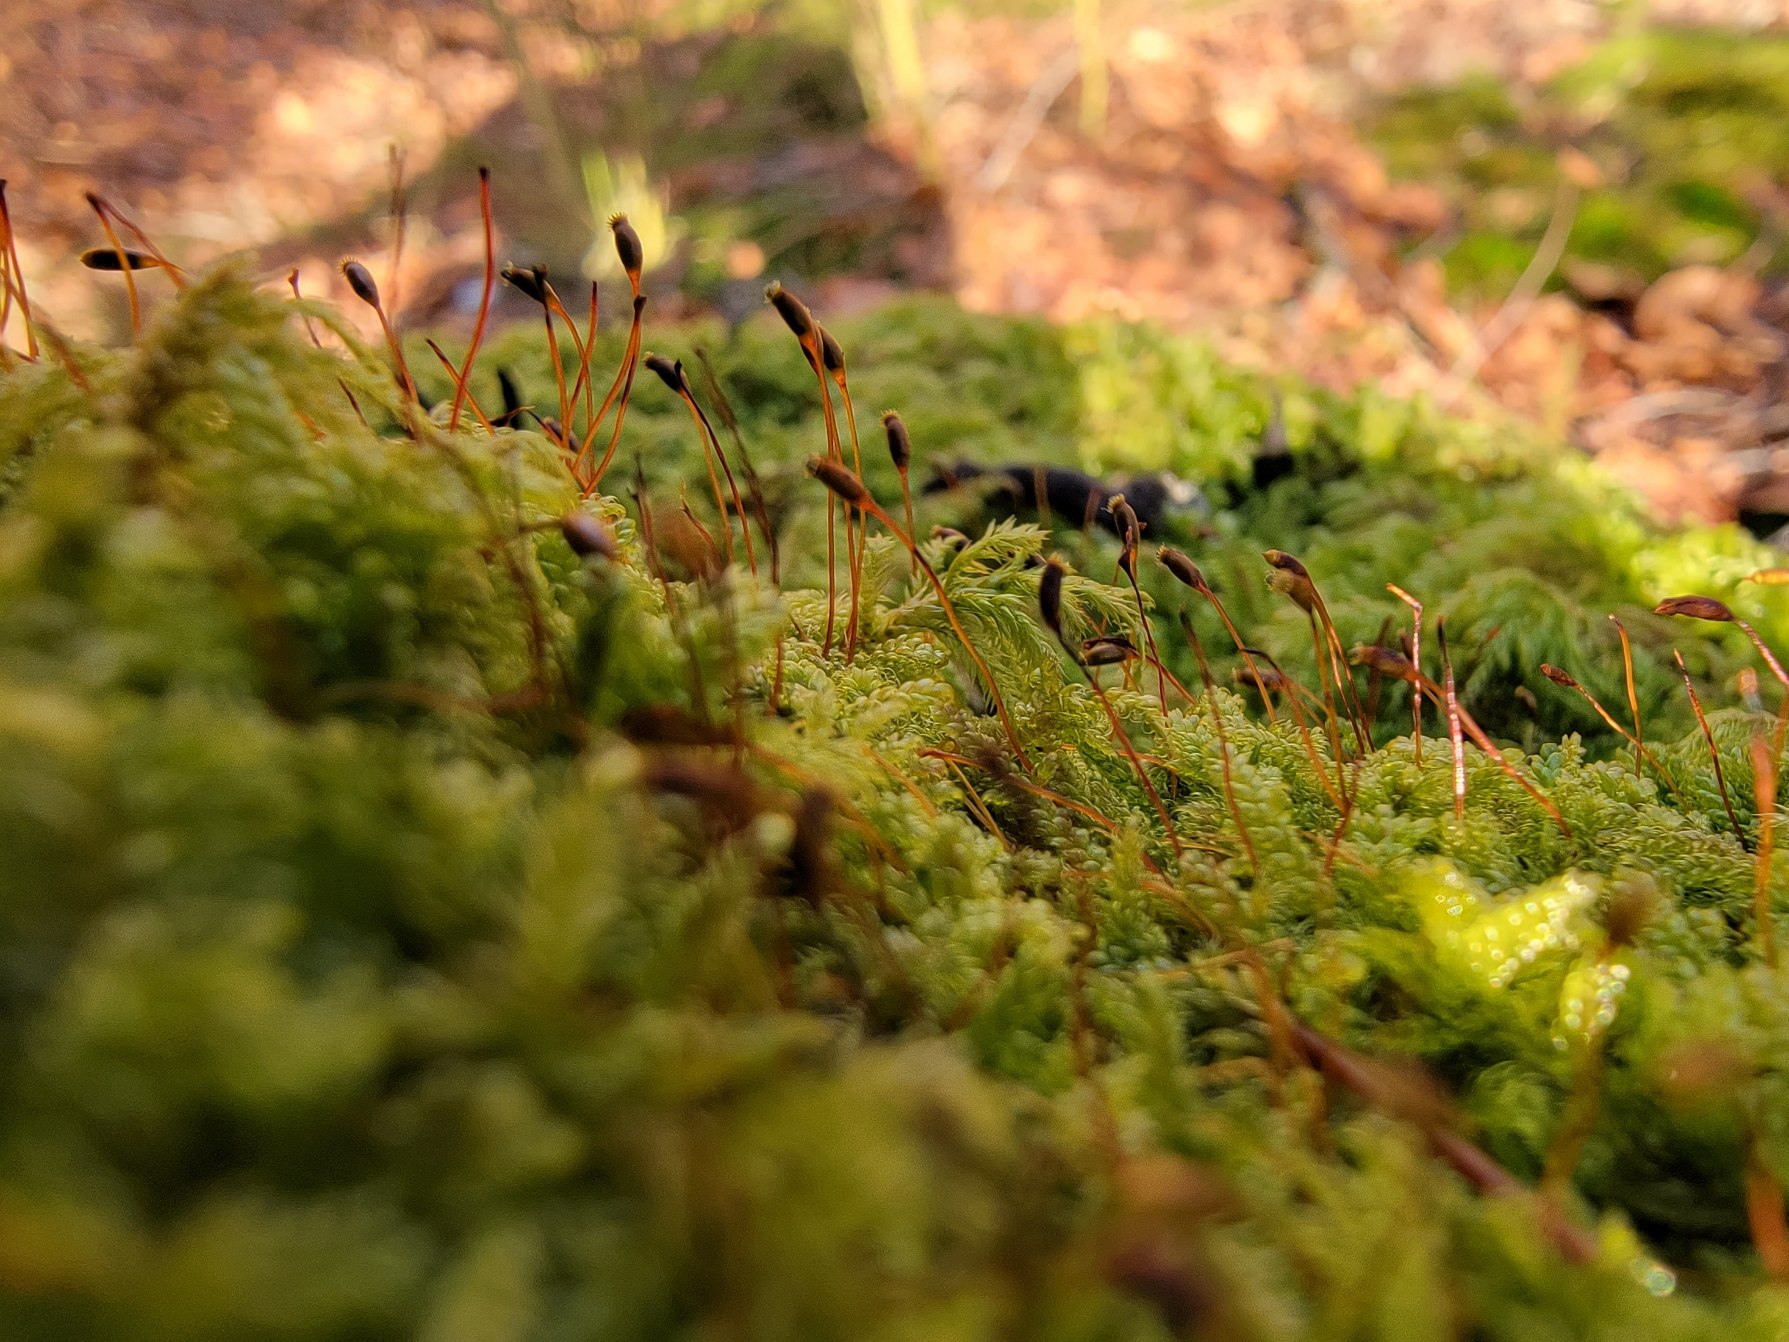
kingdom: Plantae
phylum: Bryophyta
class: Bryopsida
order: Hypnales
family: Hypnaceae
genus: Hypnum
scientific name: Hypnum andoi
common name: Vortet cypresmos
